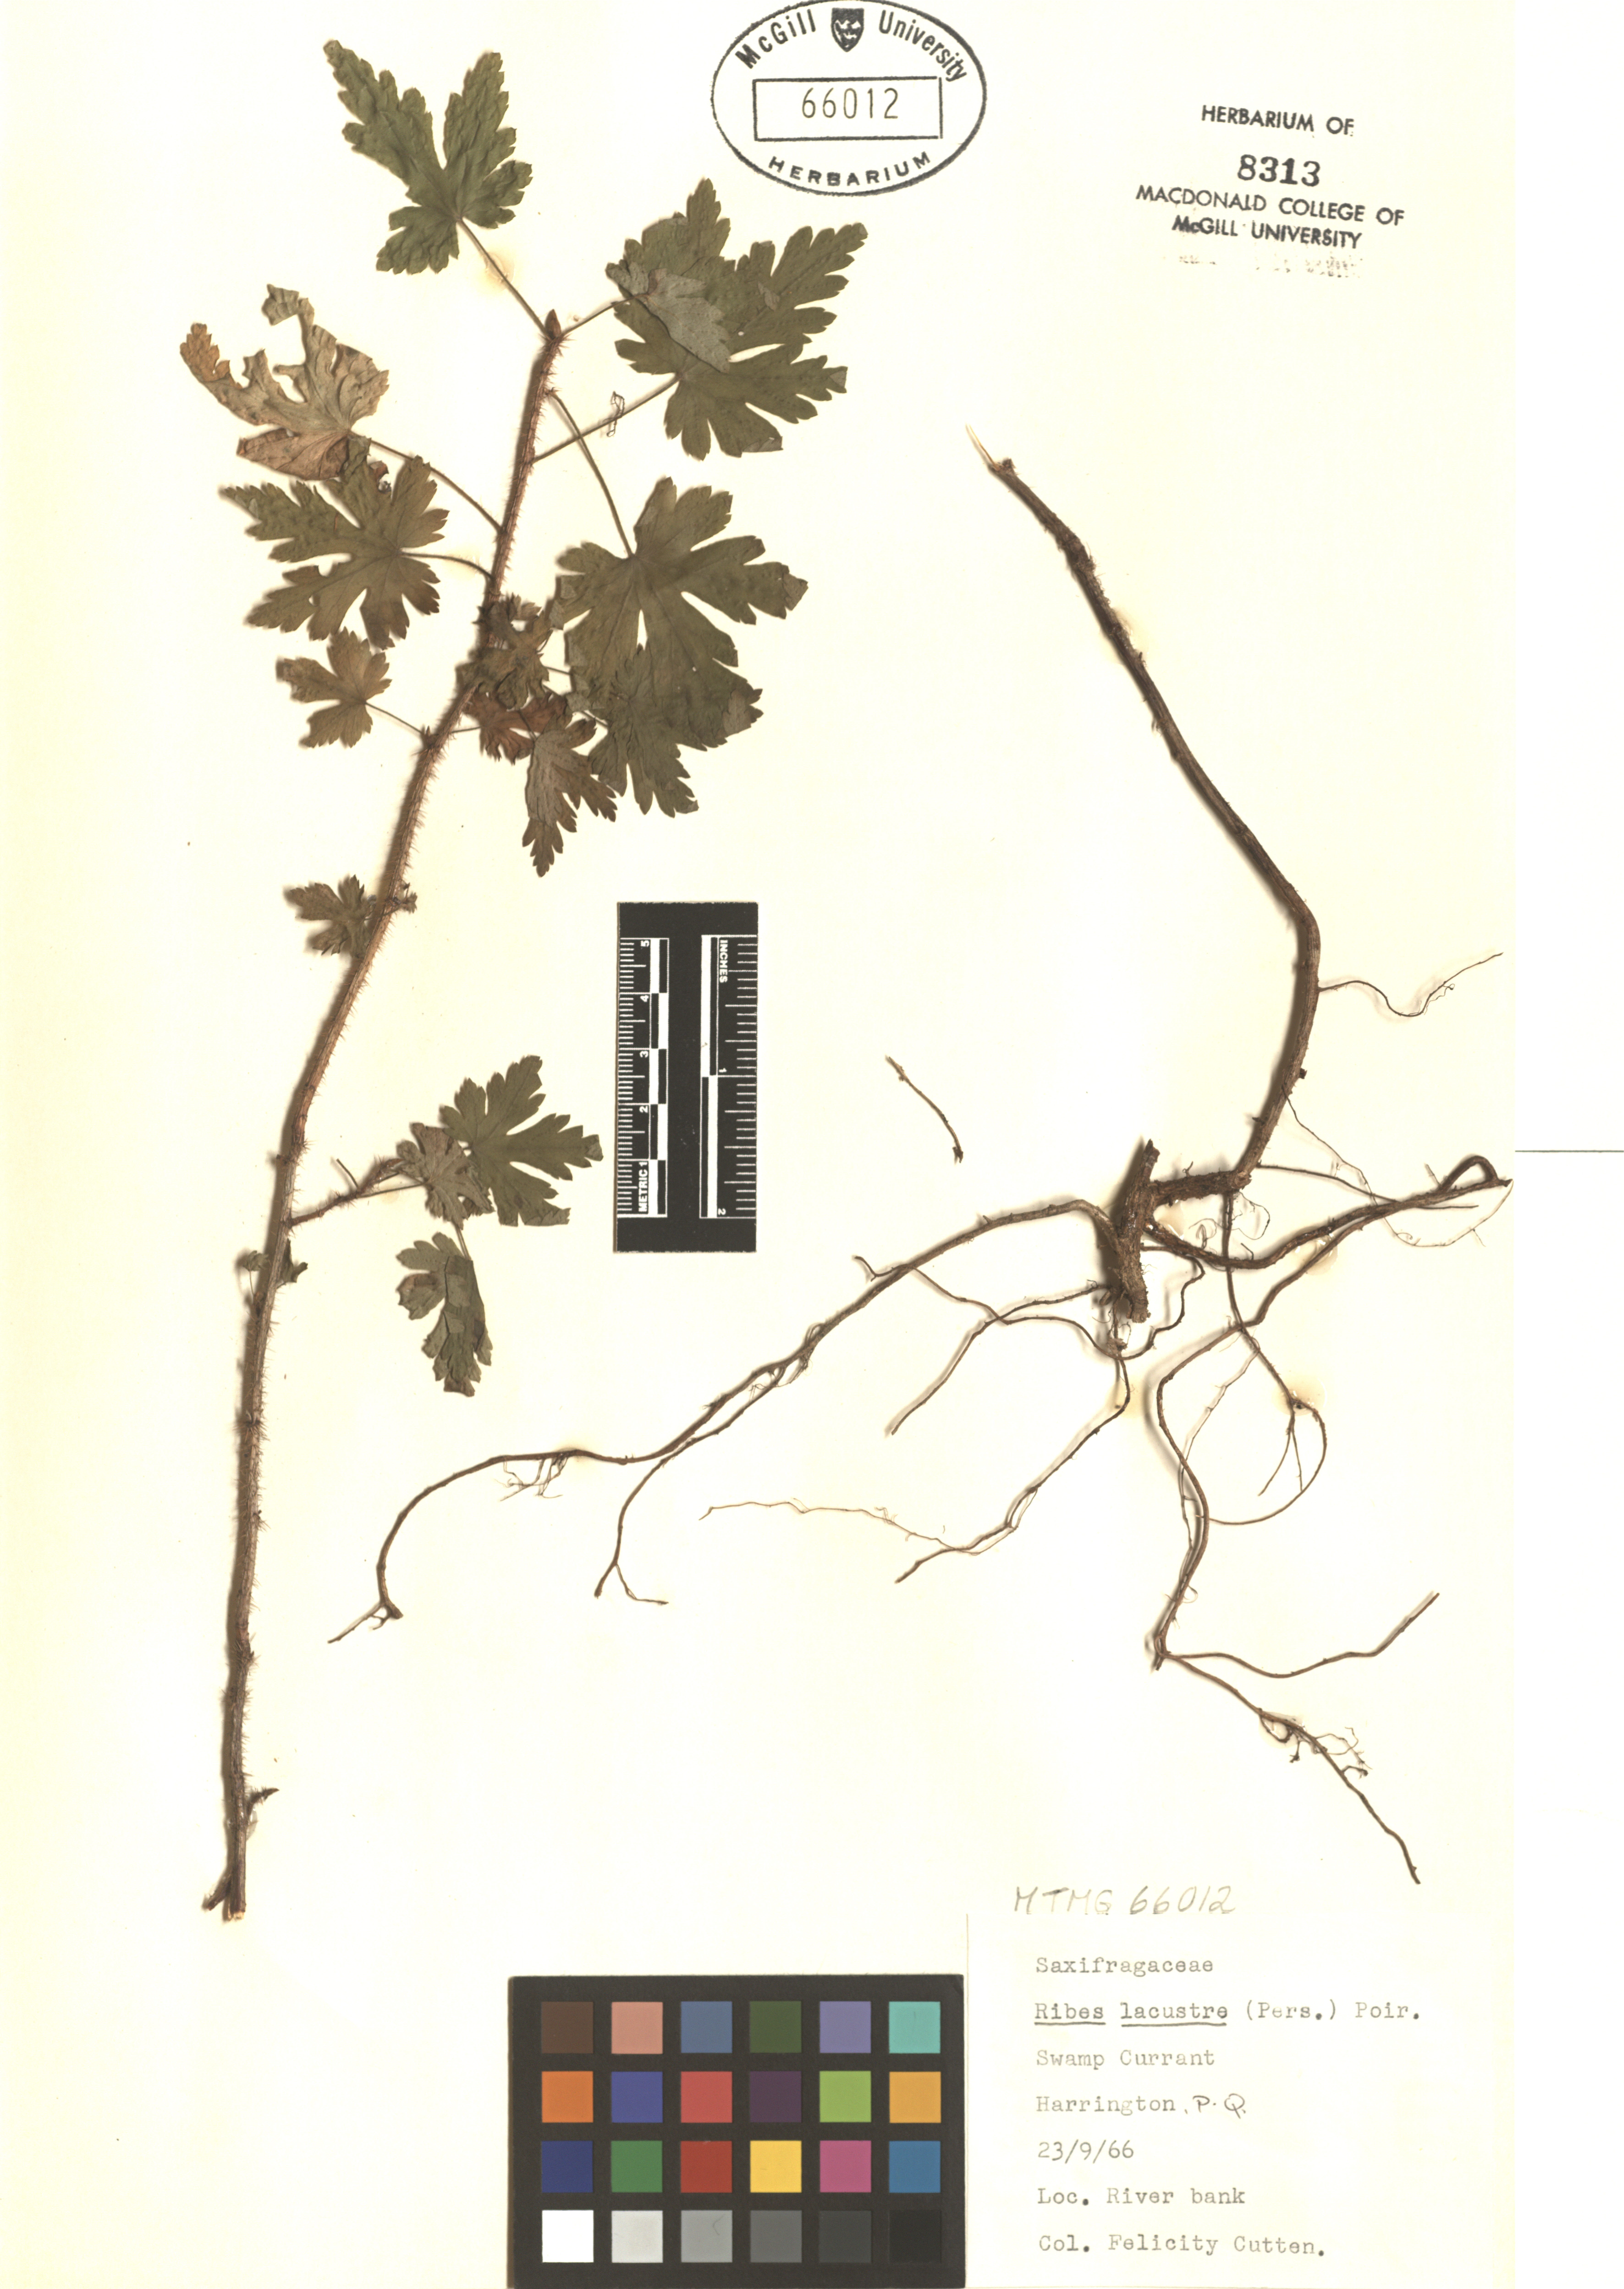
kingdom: Plantae
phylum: Tracheophyta
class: Magnoliopsida
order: Saxifragales
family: Grossulariaceae
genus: Ribes
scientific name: Ribes lacustre
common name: Black gooseberry
